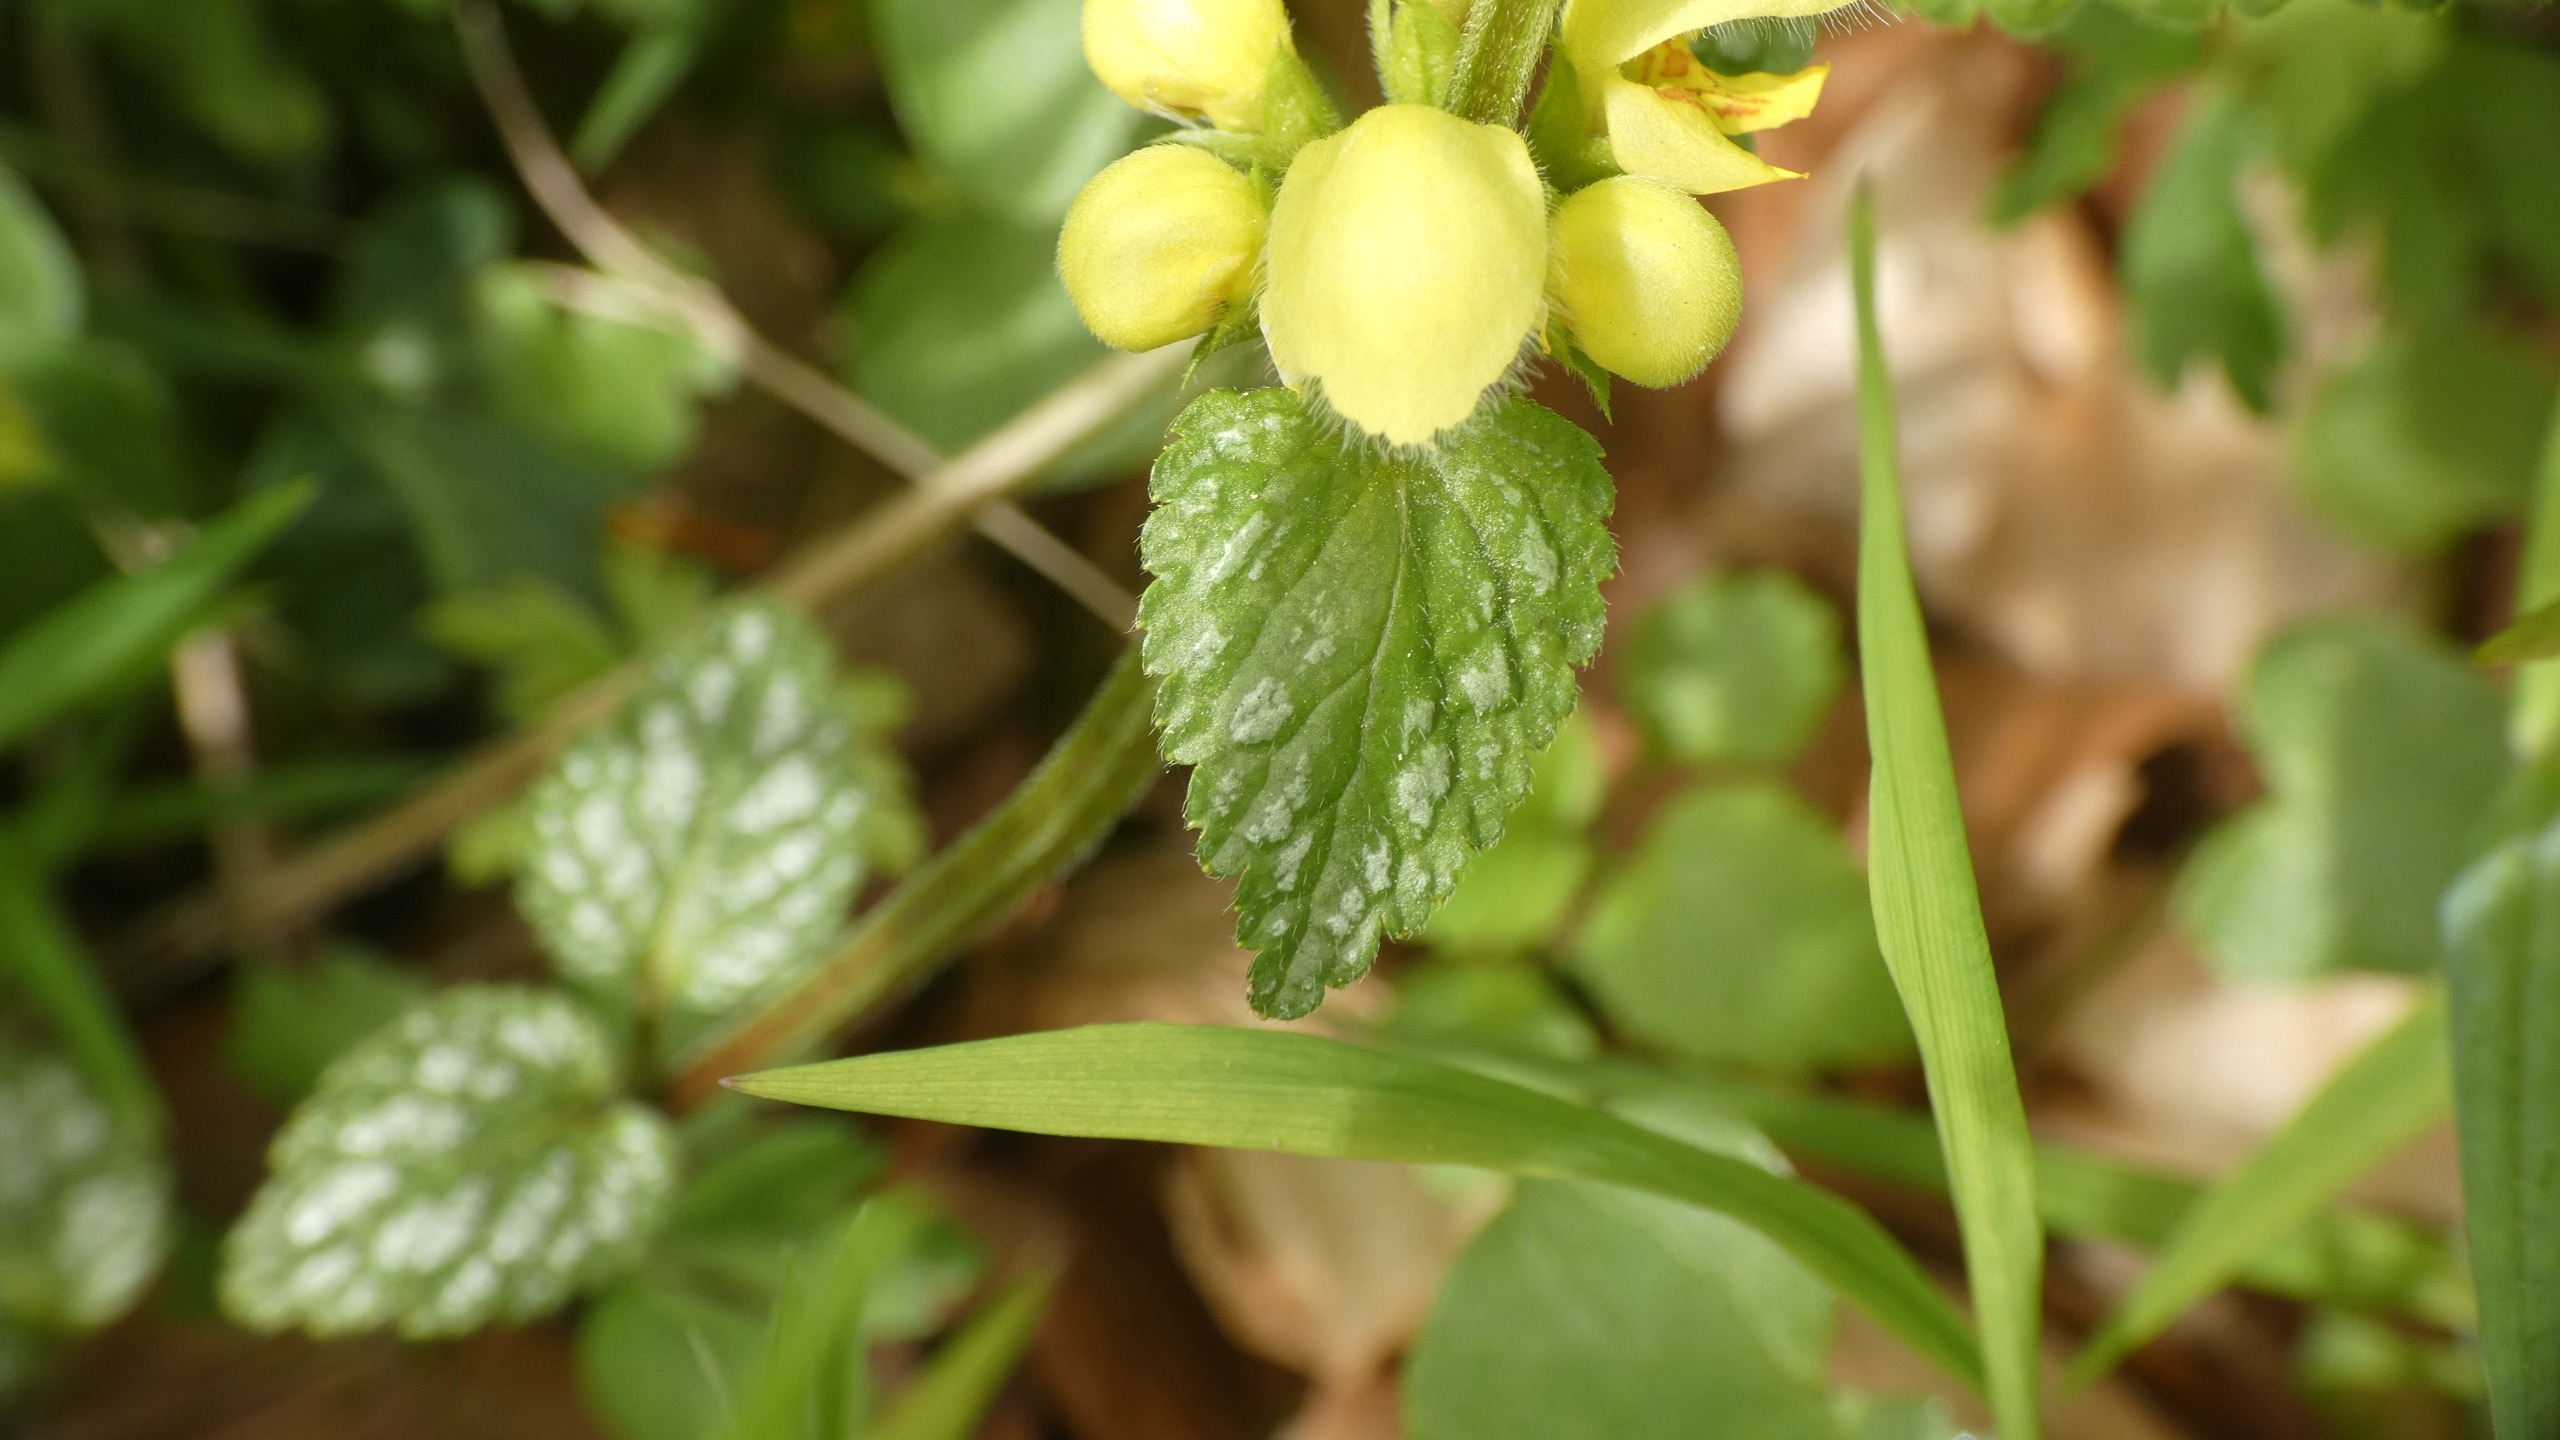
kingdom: Plantae
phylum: Tracheophyta
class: Magnoliopsida
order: Lamiales
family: Lamiaceae
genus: Lamium
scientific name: Lamium galeobdolon
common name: Guldnælde
